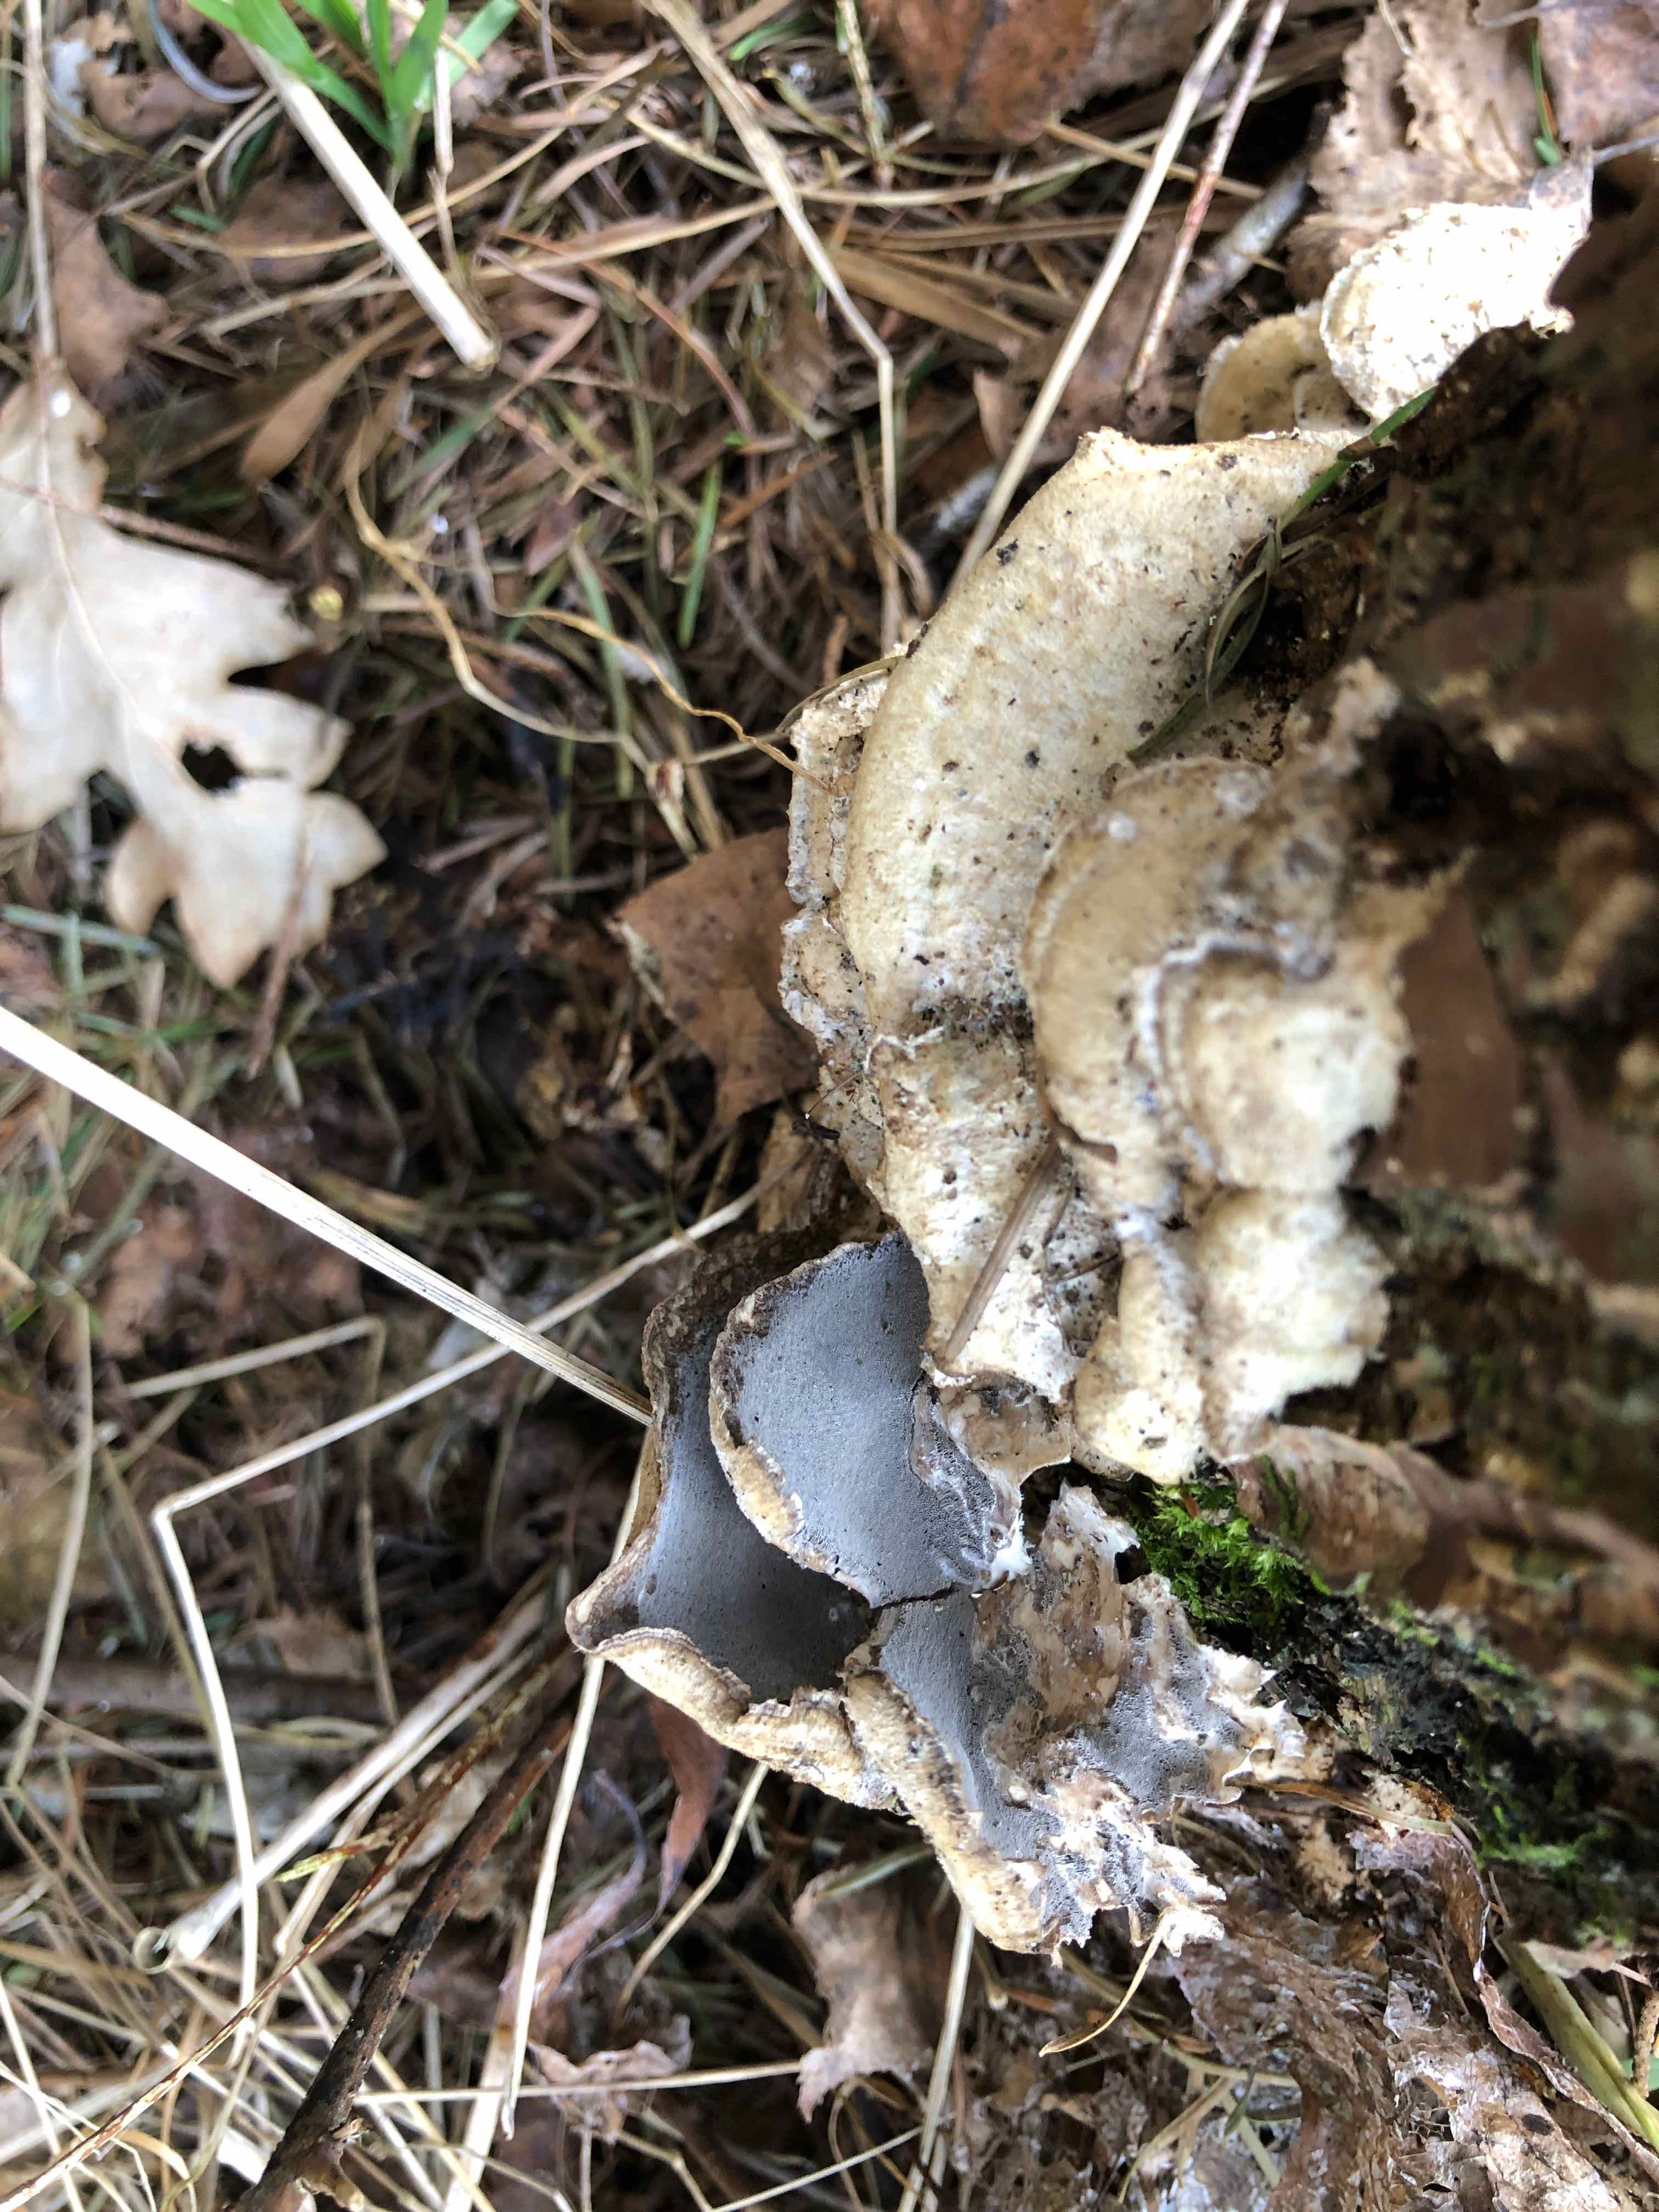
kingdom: Fungi
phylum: Basidiomycota
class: Agaricomycetes
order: Polyporales
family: Phanerochaetaceae
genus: Bjerkandera
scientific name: Bjerkandera adusta
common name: sveden sodporesvamp
